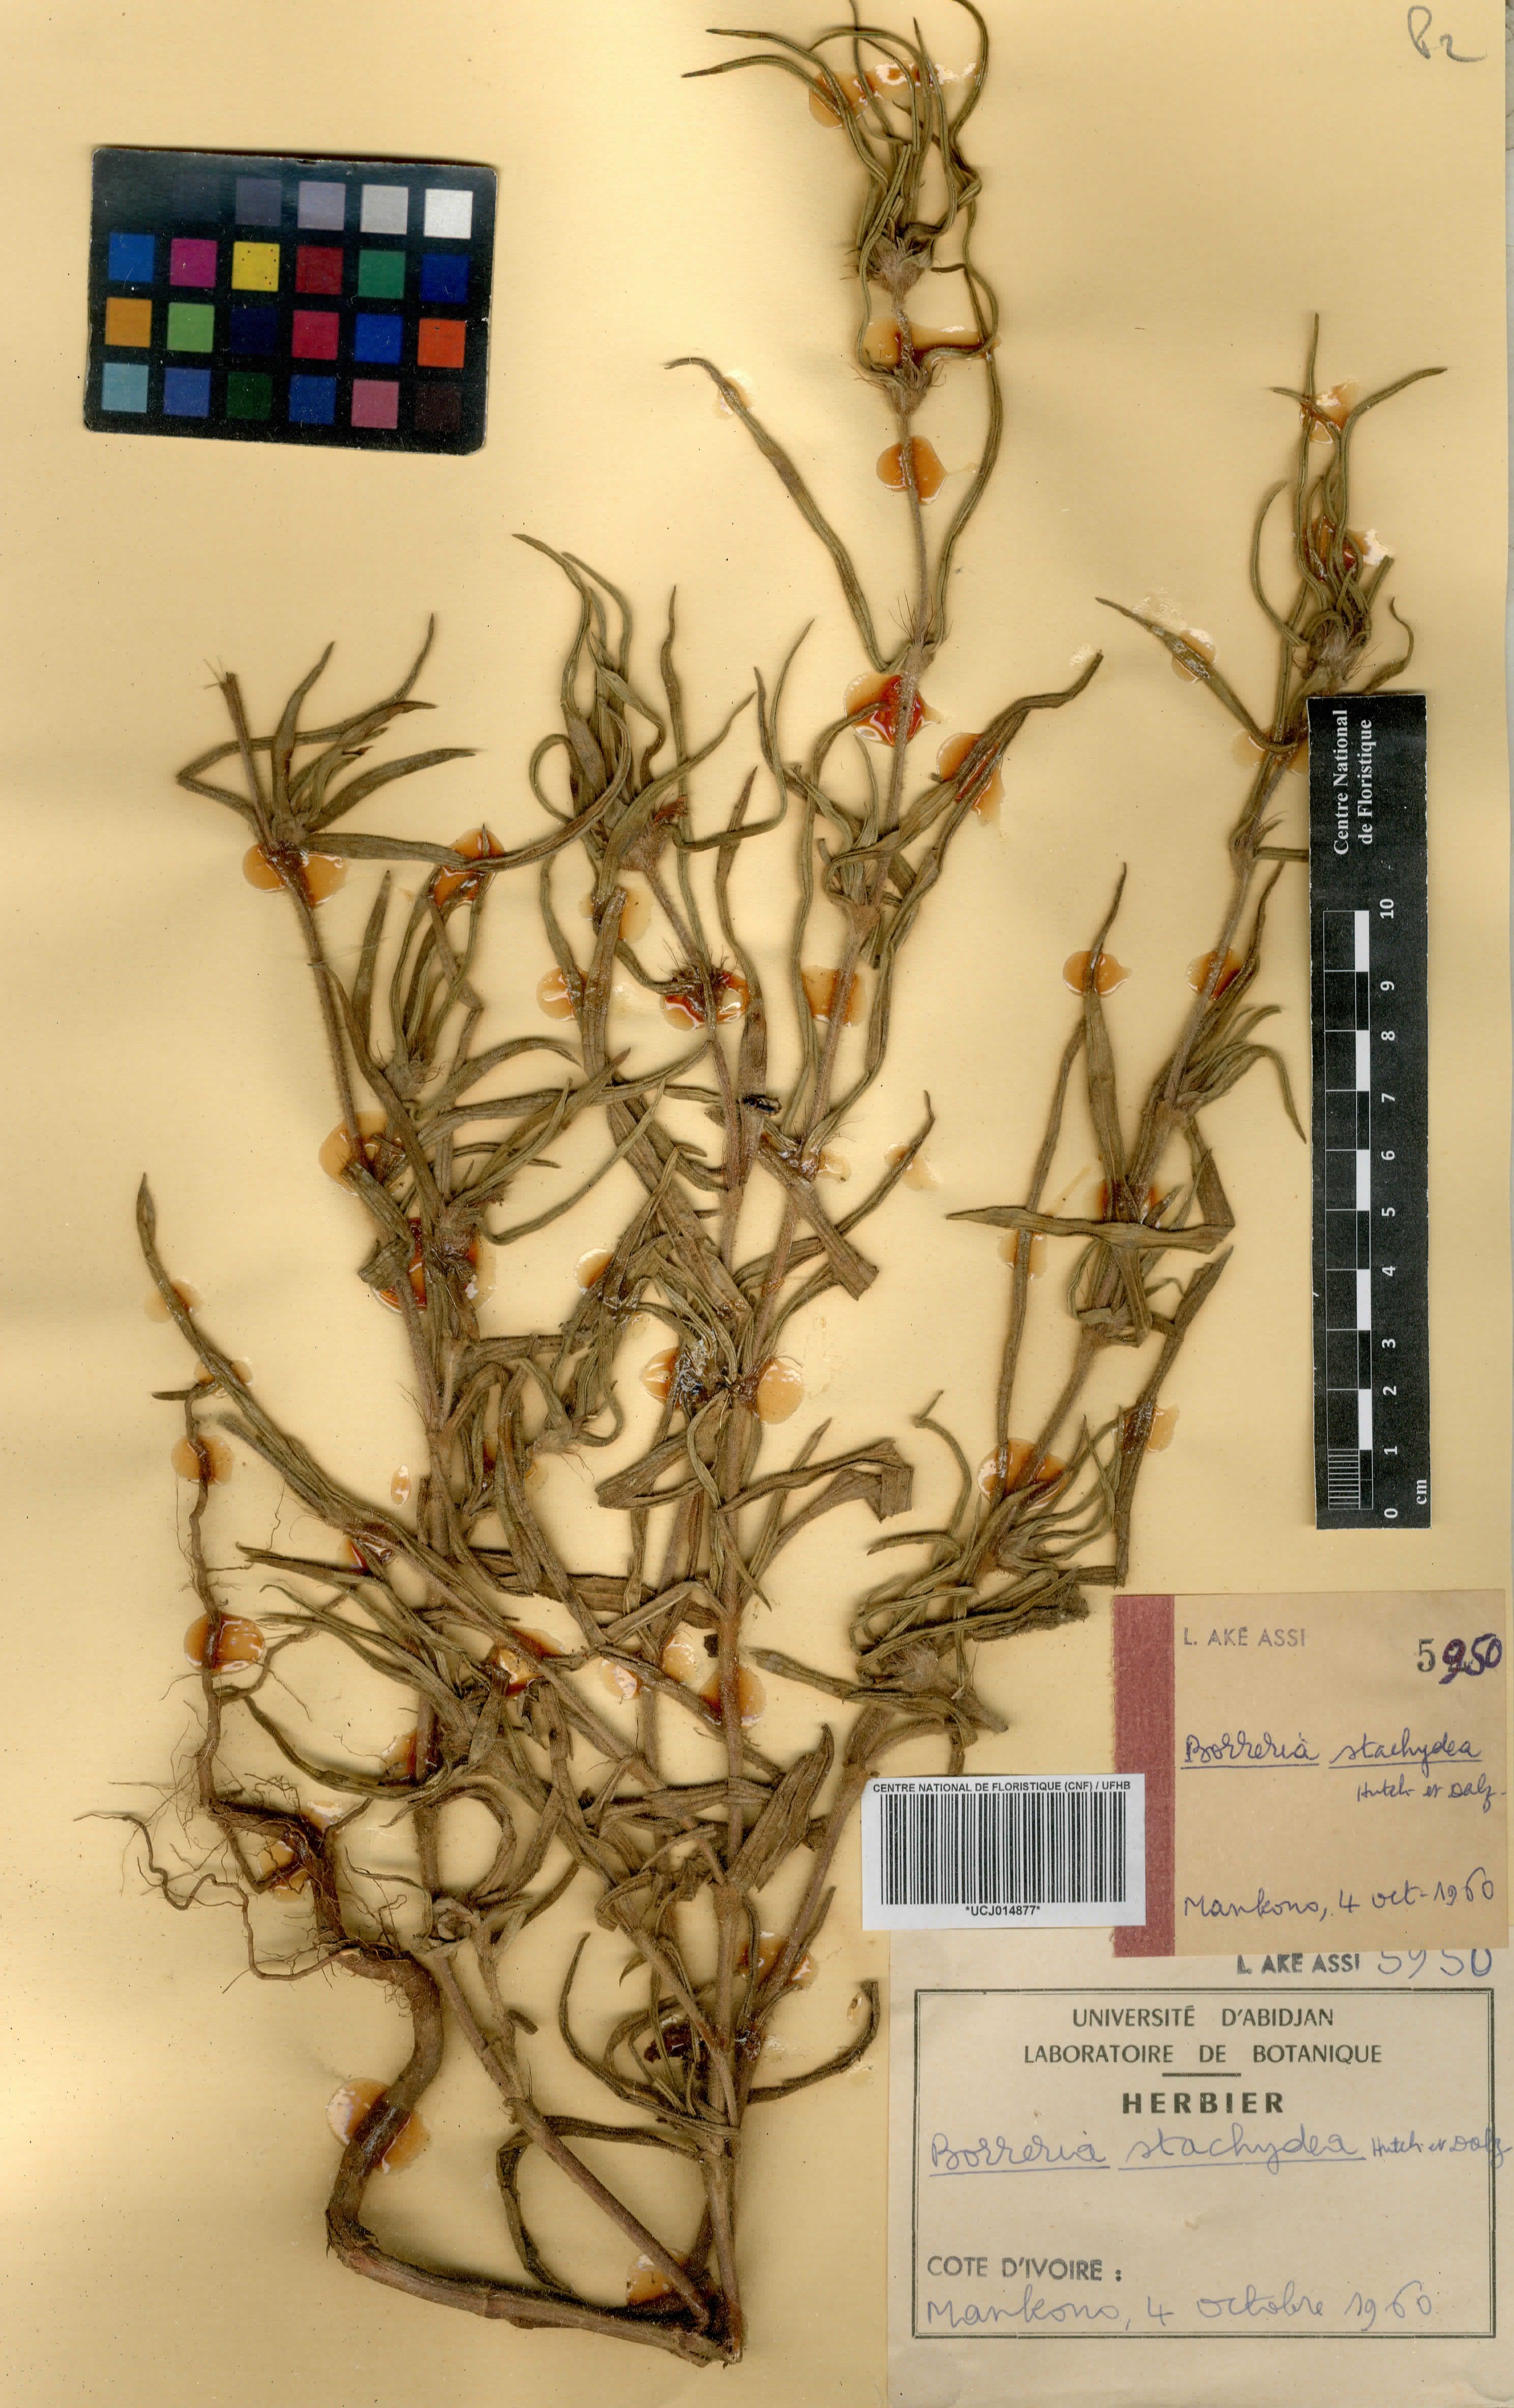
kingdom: Plantae
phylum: Tracheophyta
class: Magnoliopsida
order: Gentianales
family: Rubiaceae
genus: Spermacoce
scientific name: Spermacoce stachydea
